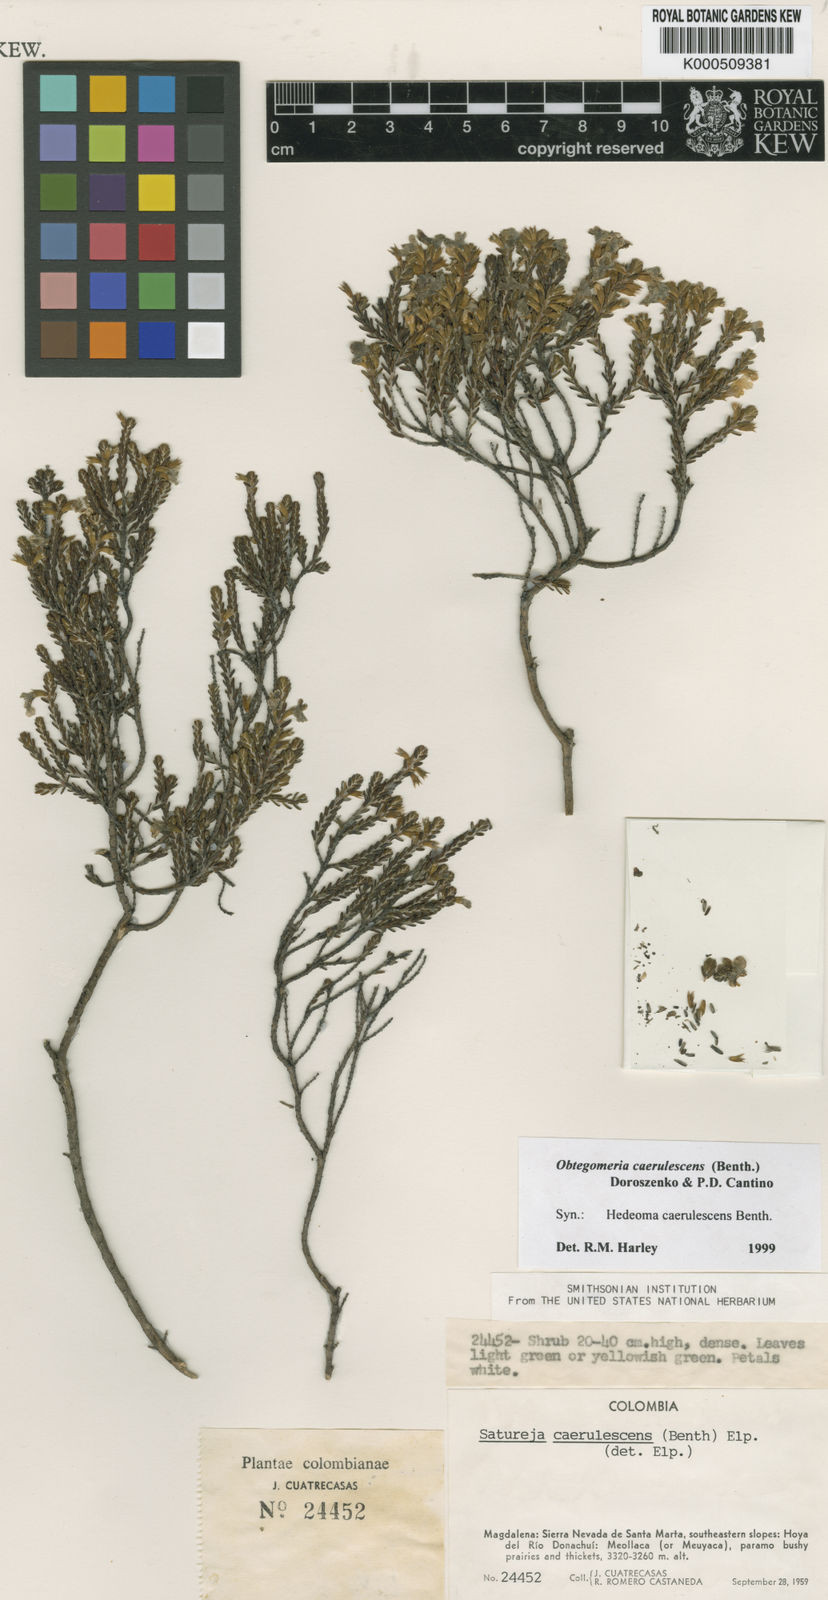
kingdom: Plantae
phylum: Tracheophyta
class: Magnoliopsida
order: Lamiales
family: Lamiaceae
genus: Obtegomeria
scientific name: Obtegomeria caerulescens
